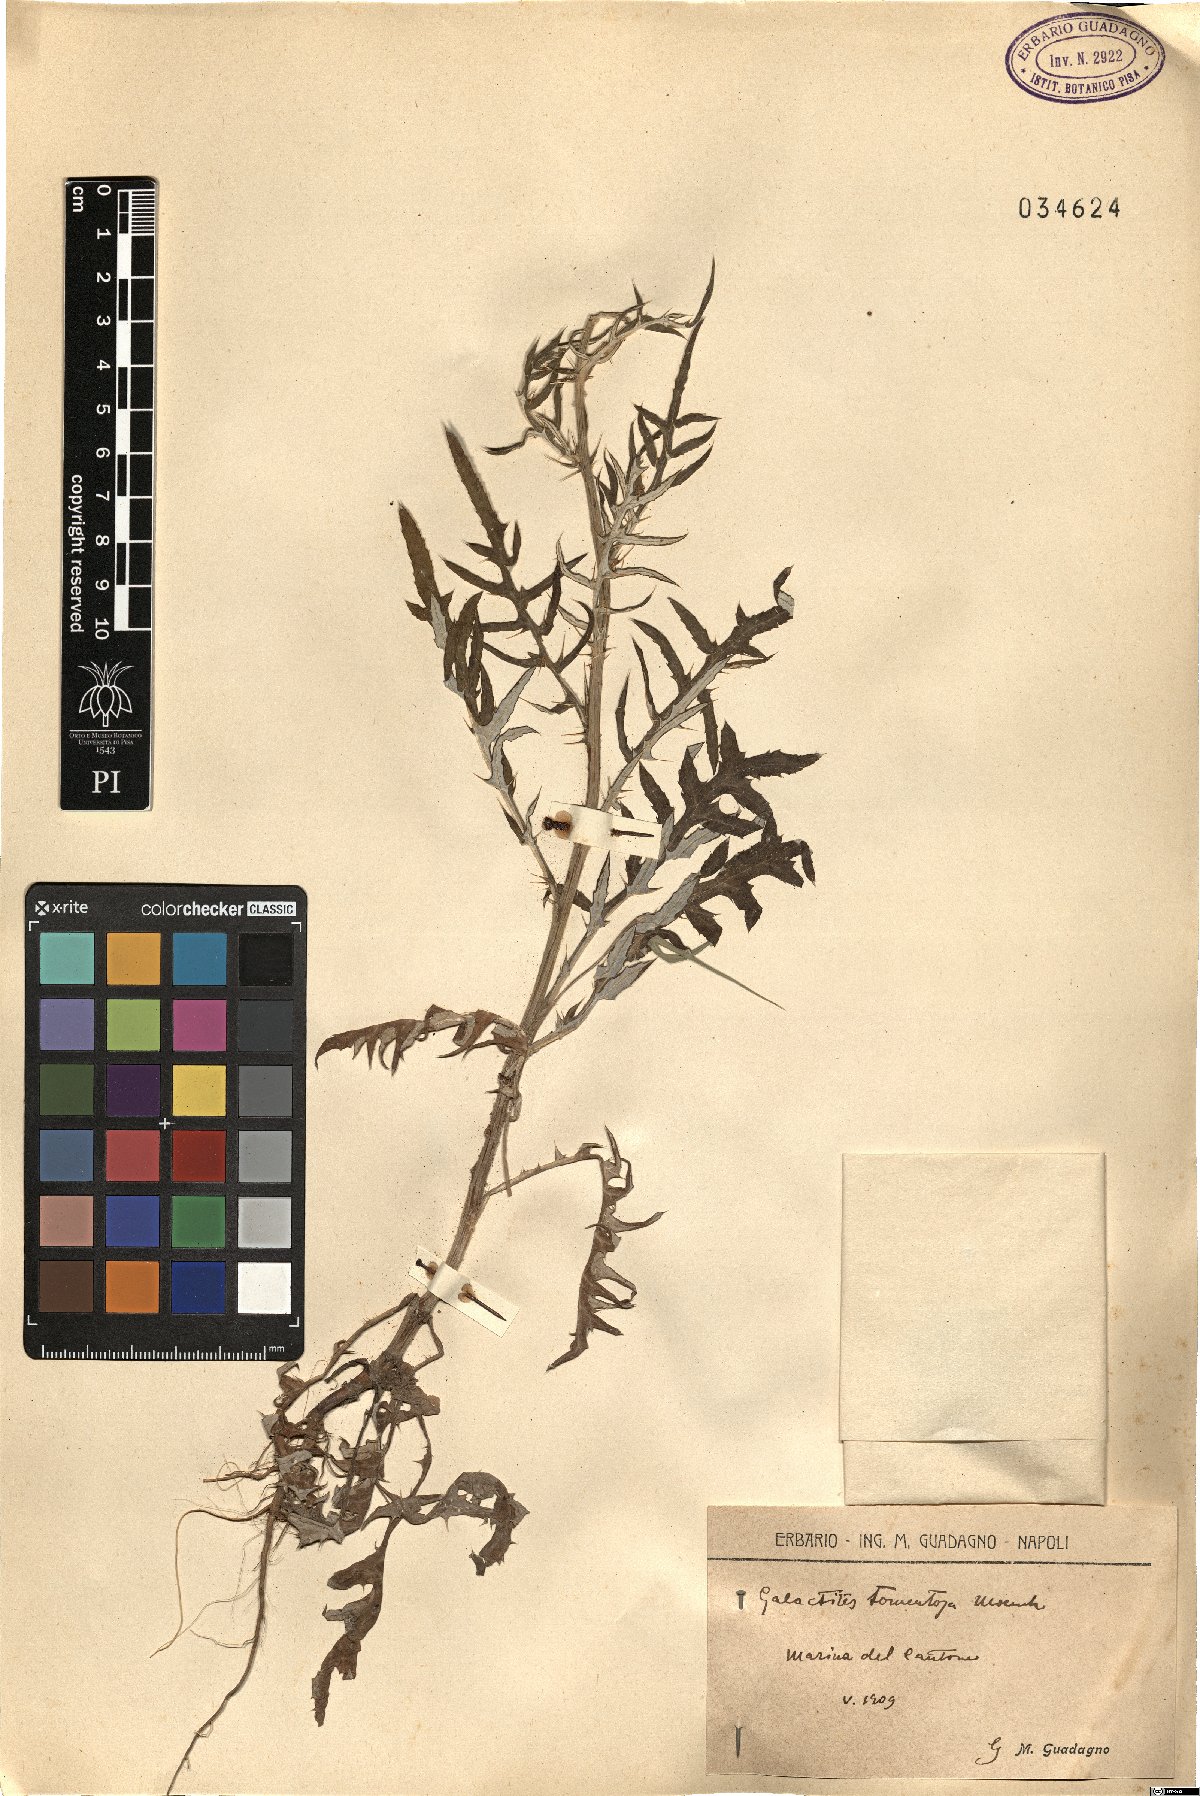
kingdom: Plantae
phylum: Tracheophyta
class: Magnoliopsida
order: Asterales
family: Asteraceae
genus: Galactites
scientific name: Galactites tomentosa
